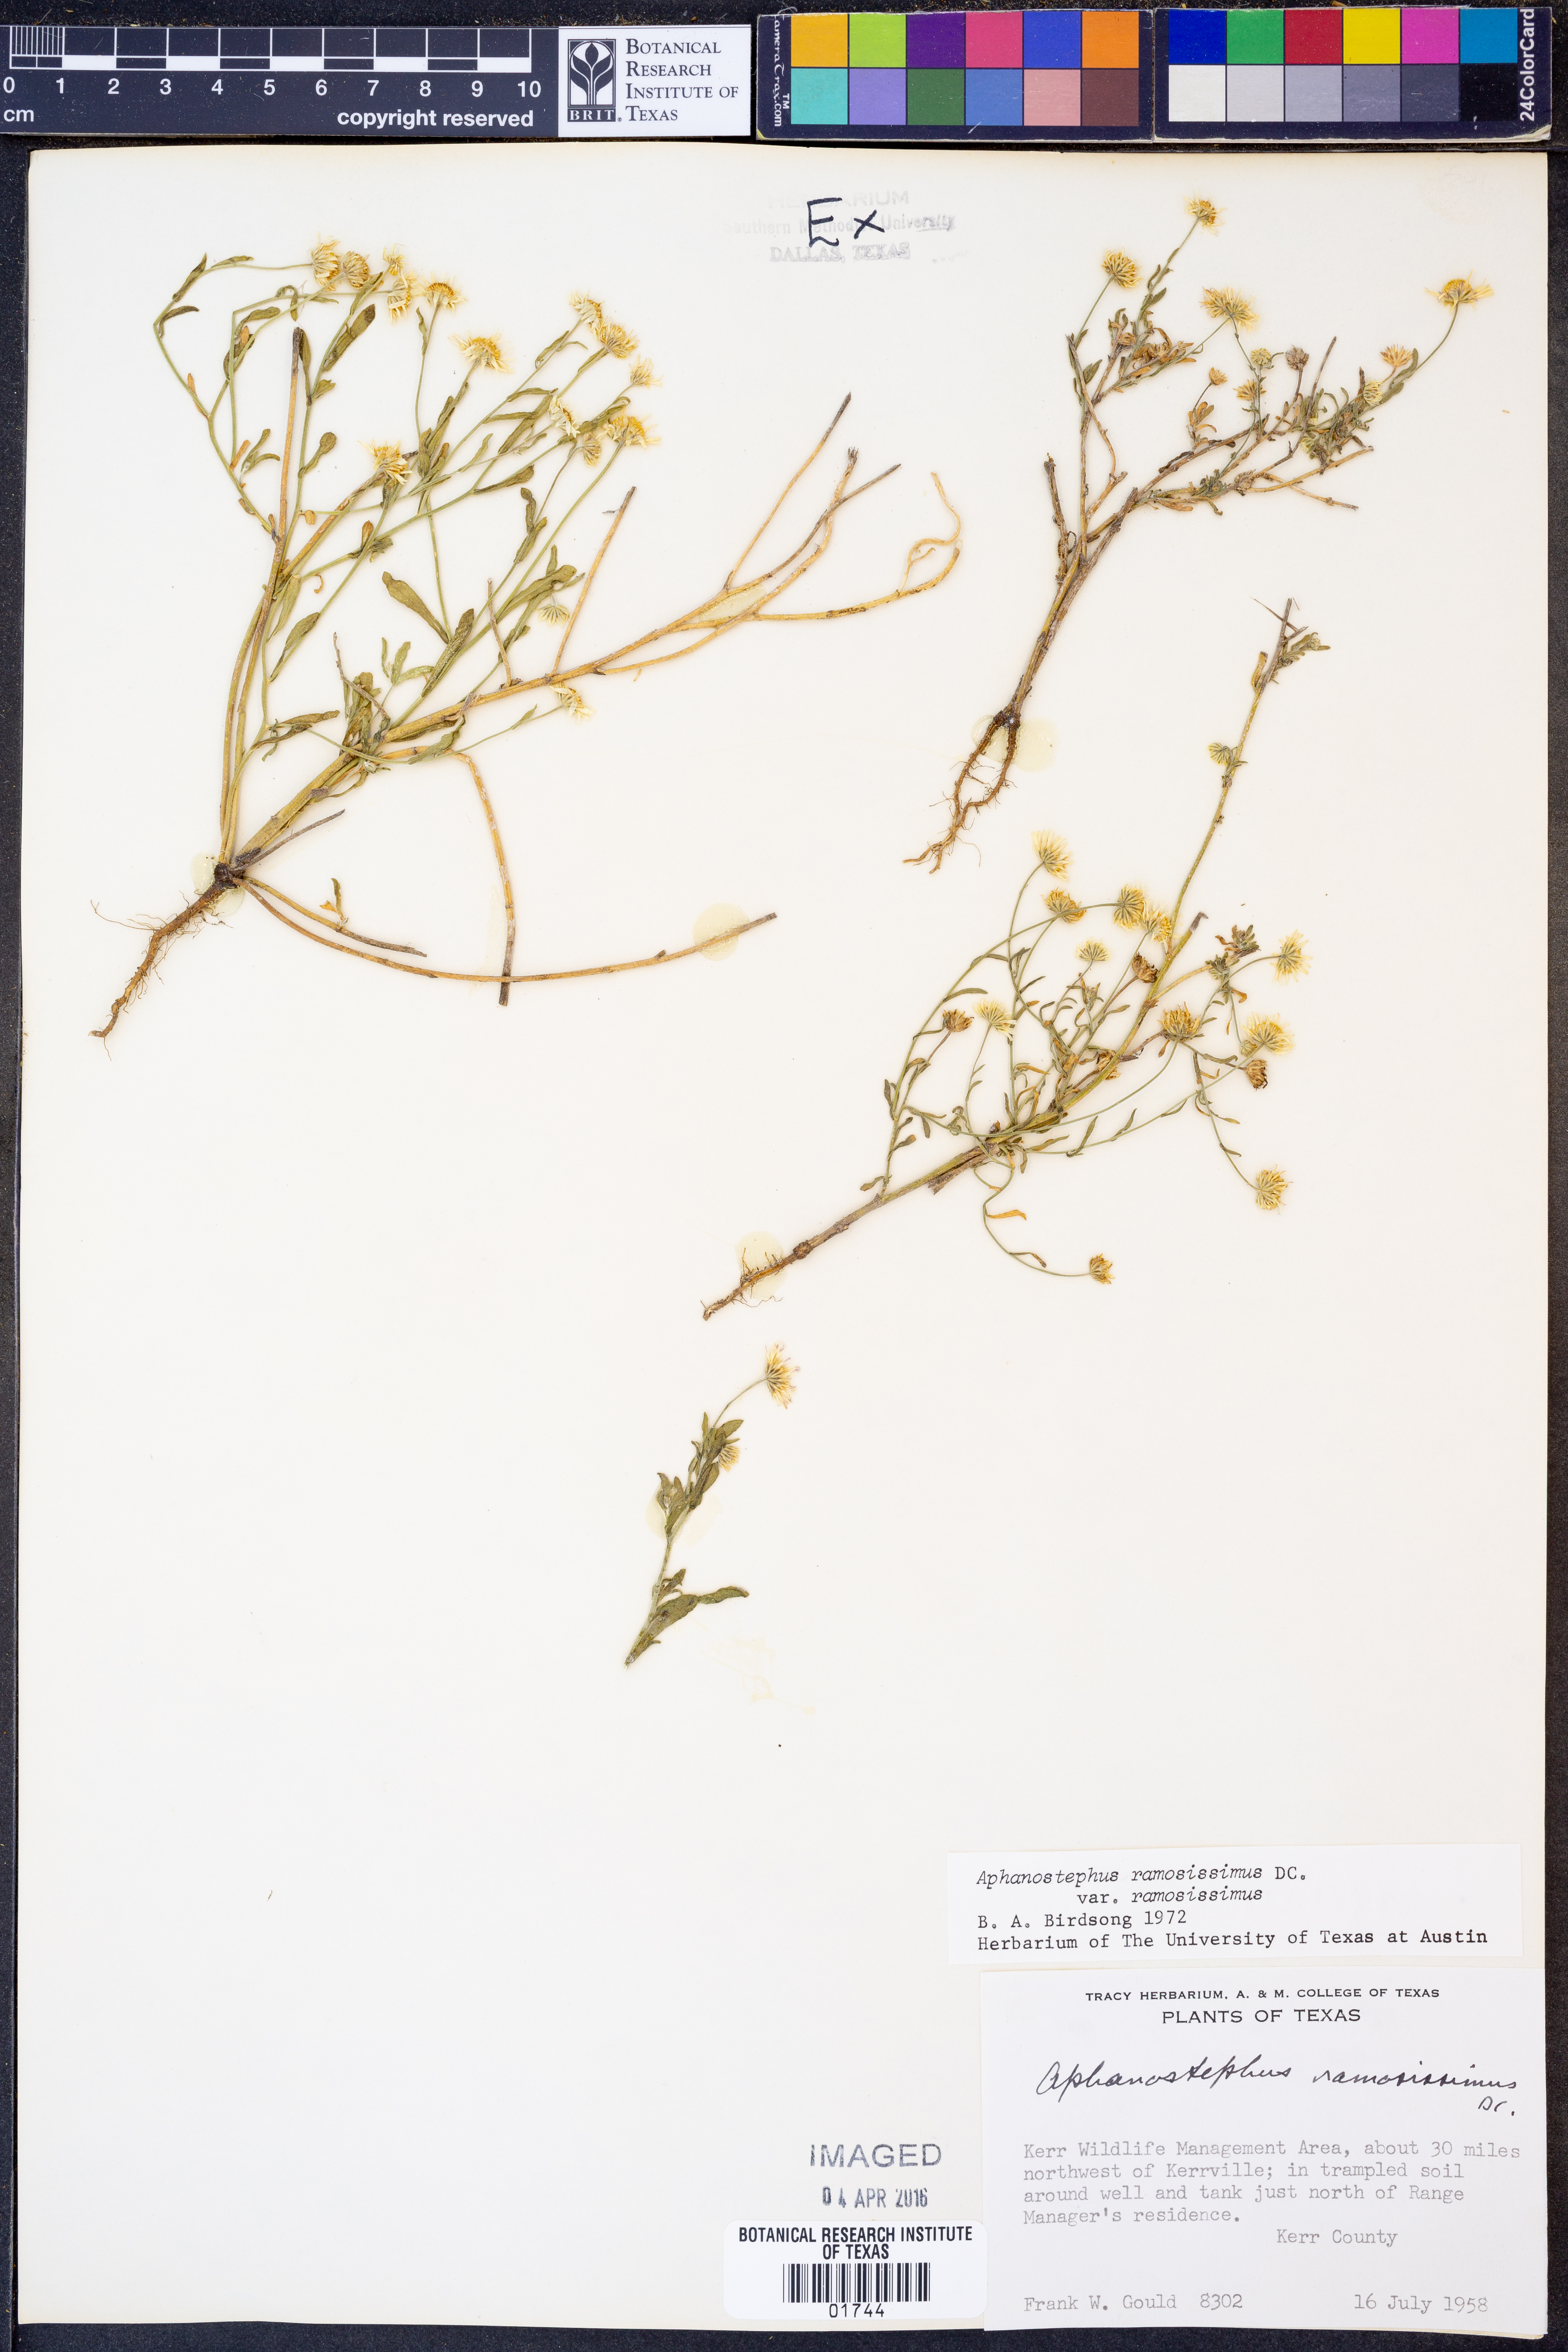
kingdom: Plantae
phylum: Tracheophyta
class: Magnoliopsida
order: Asterales
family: Asteraceae
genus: Aphanostephus
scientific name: Aphanostephus ramosissimus
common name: Plains lazy daisy
